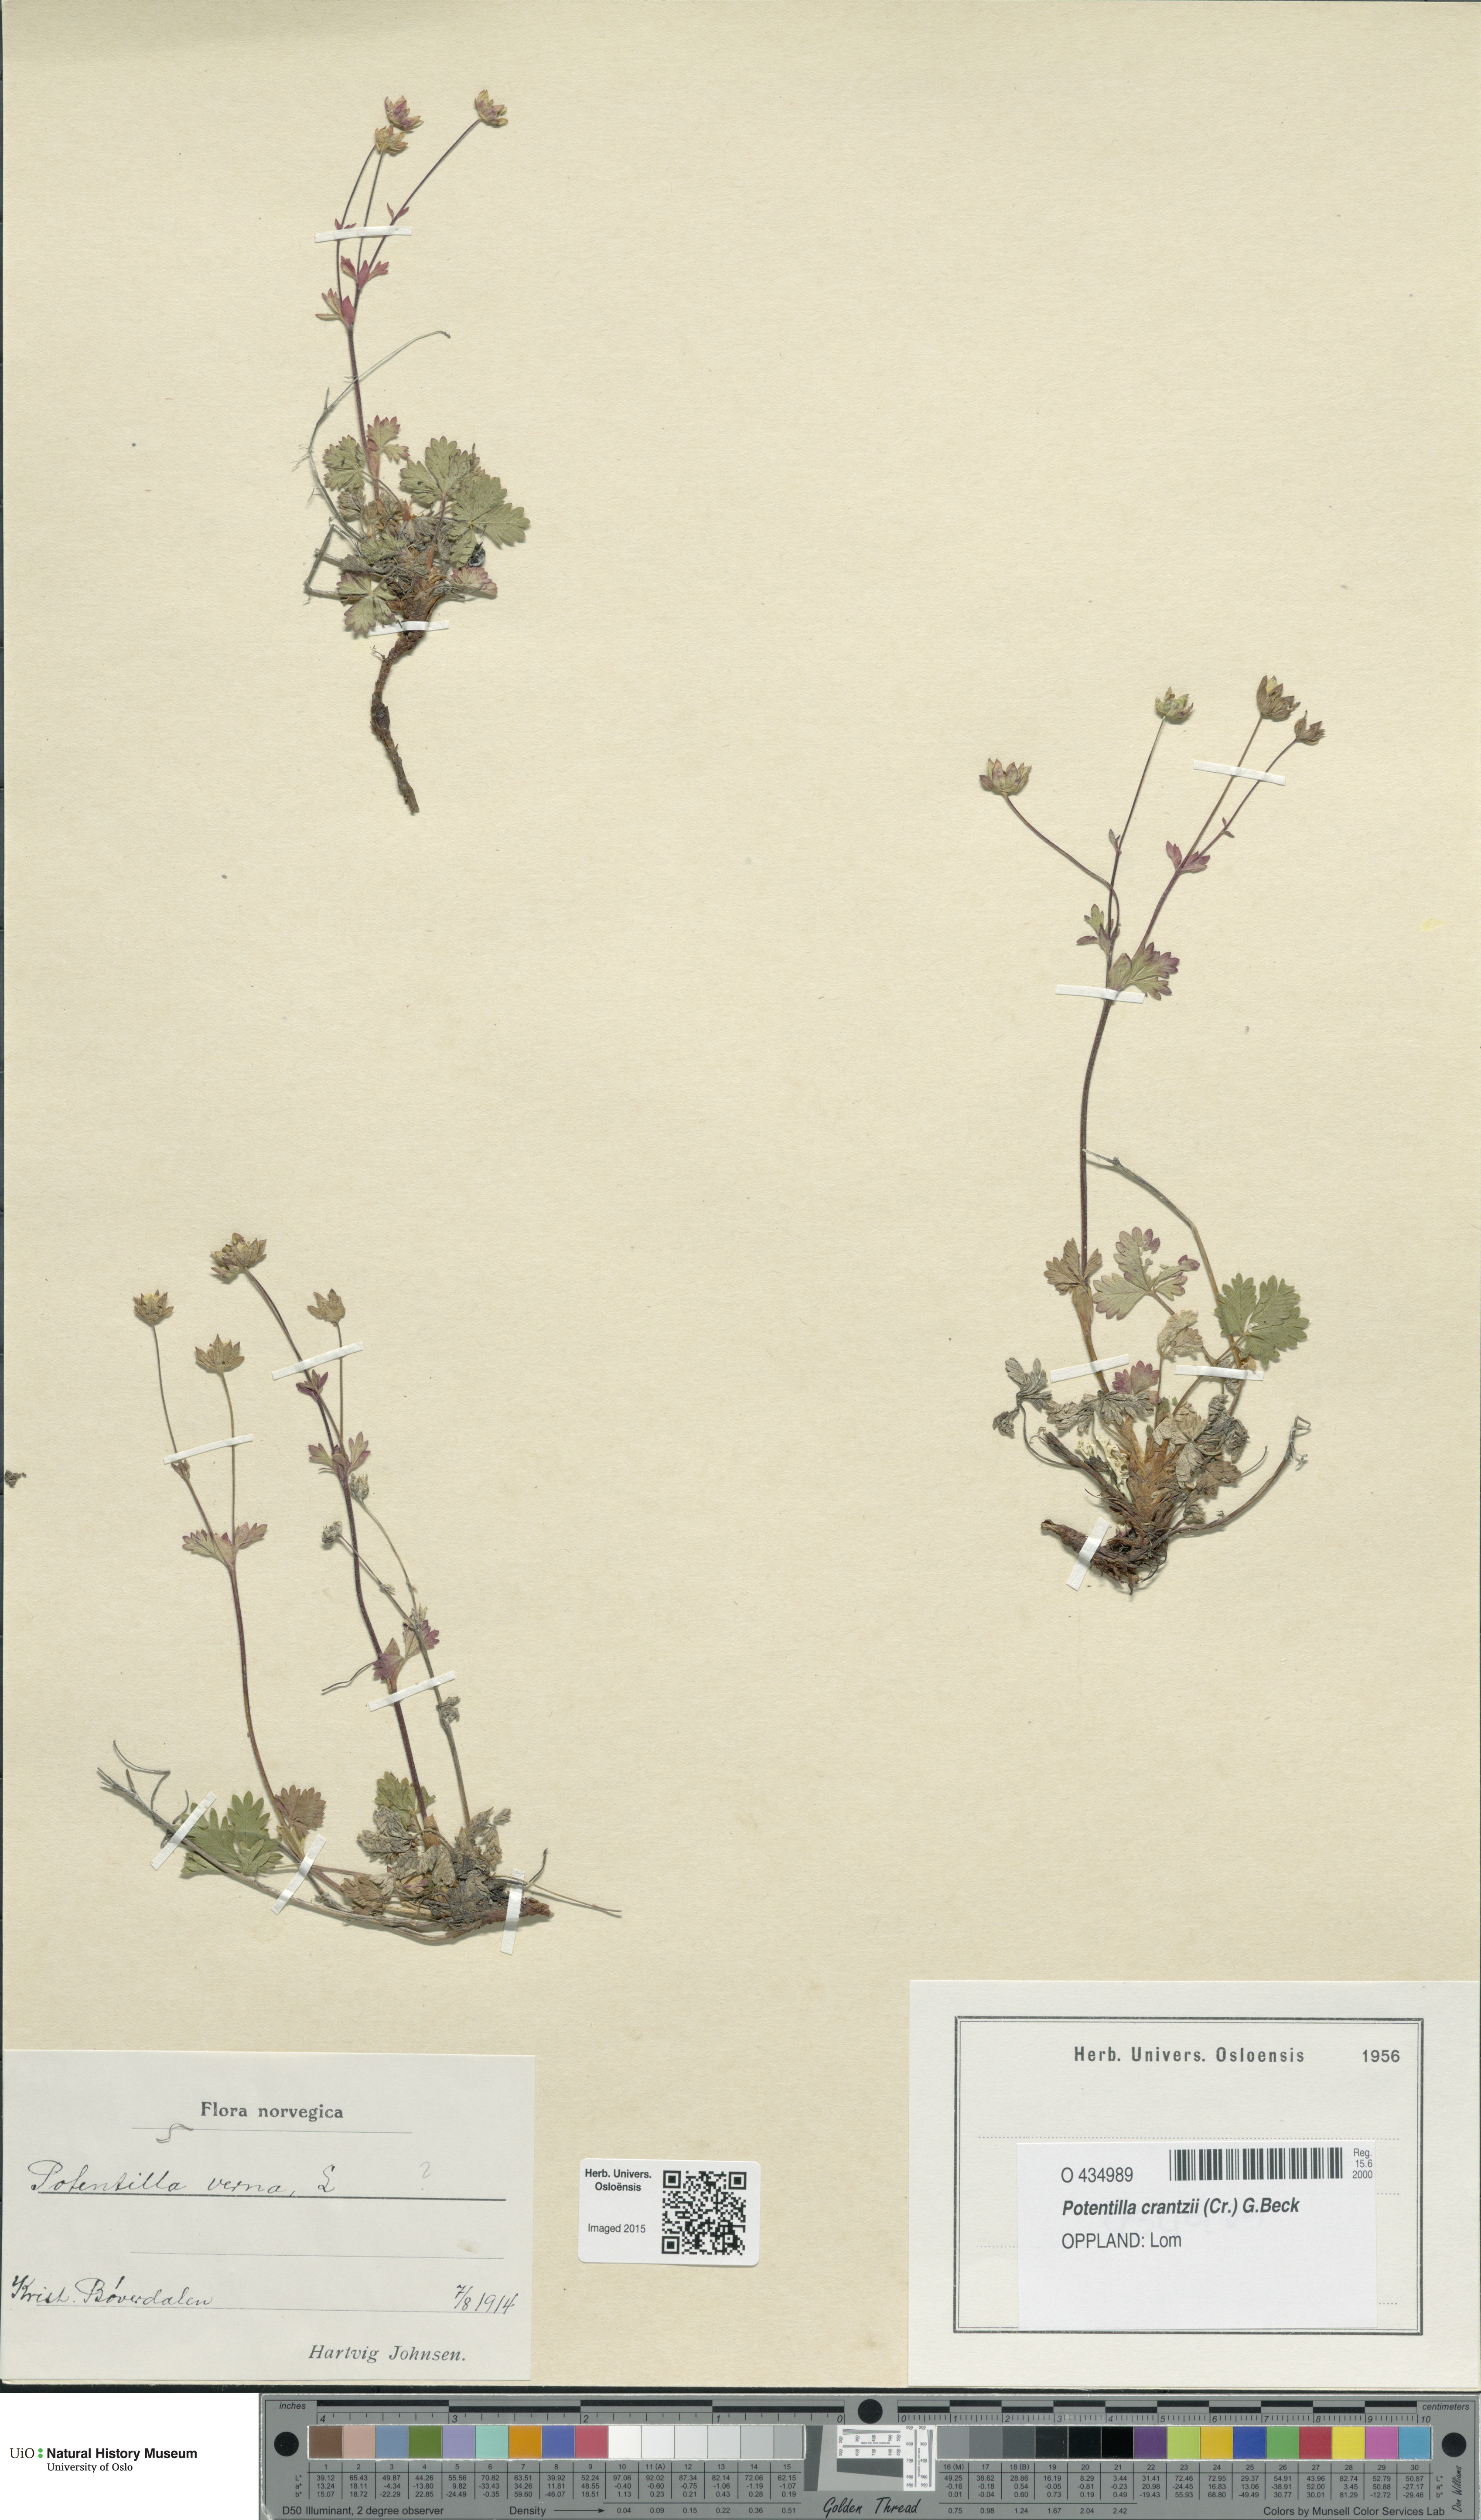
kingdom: Plantae
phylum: Tracheophyta
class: Magnoliopsida
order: Rosales
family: Rosaceae
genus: Potentilla
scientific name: Potentilla verna
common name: Spring cinquefoil
